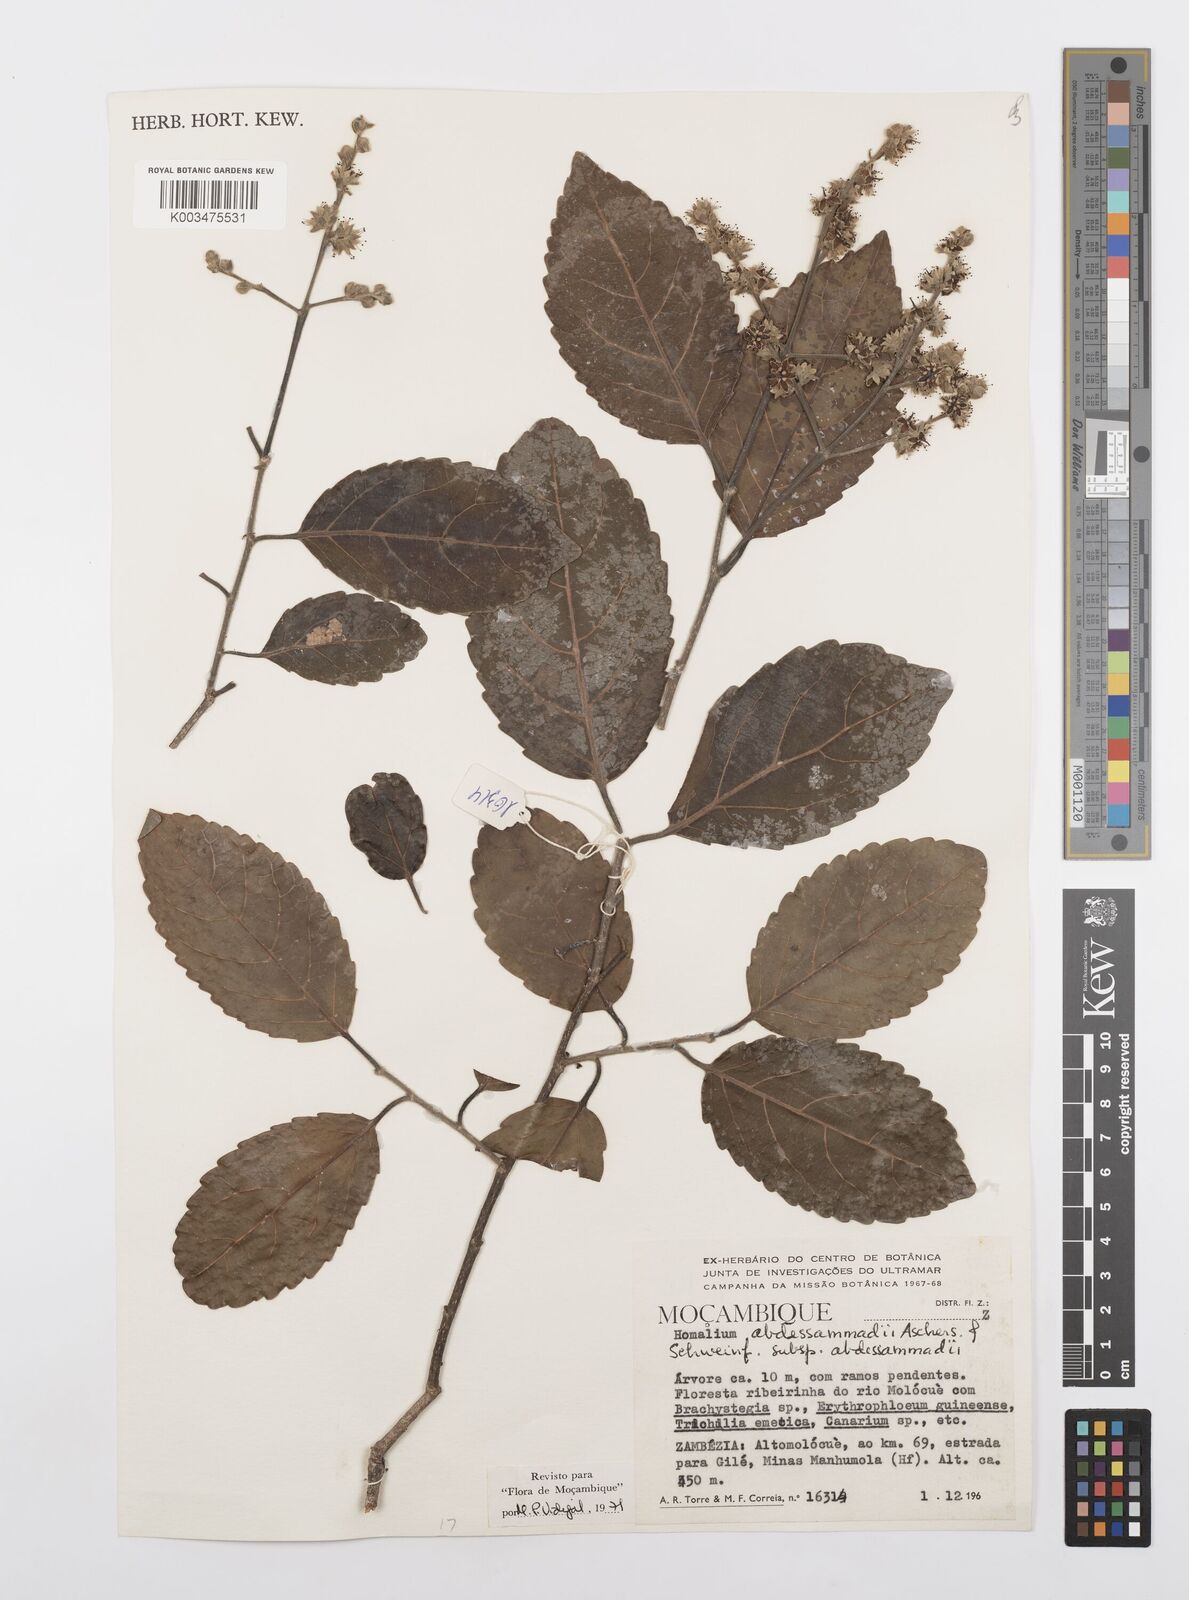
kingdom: Plantae
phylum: Tracheophyta
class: Magnoliopsida
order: Malpighiales
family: Salicaceae
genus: Homalium
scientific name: Homalium abdessammadii
